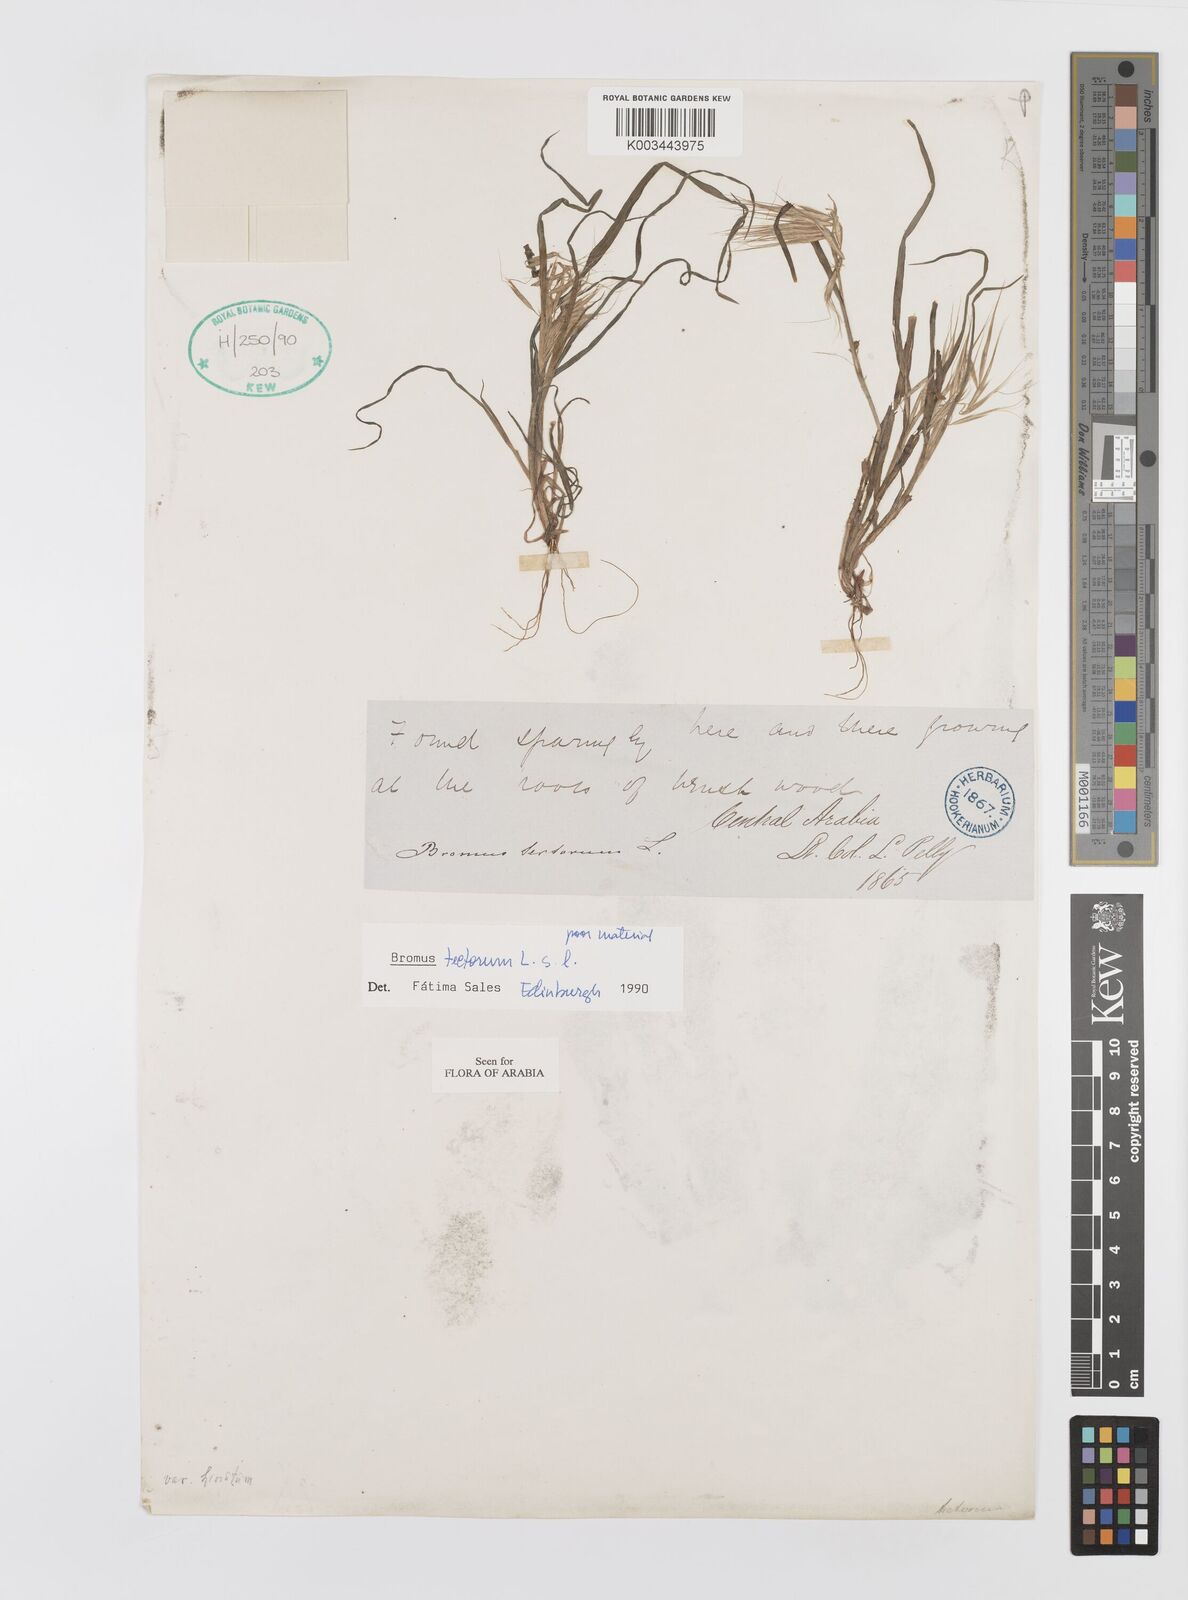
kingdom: Plantae
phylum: Tracheophyta
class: Liliopsida
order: Poales
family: Poaceae
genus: Bromus
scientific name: Bromus moeszii
